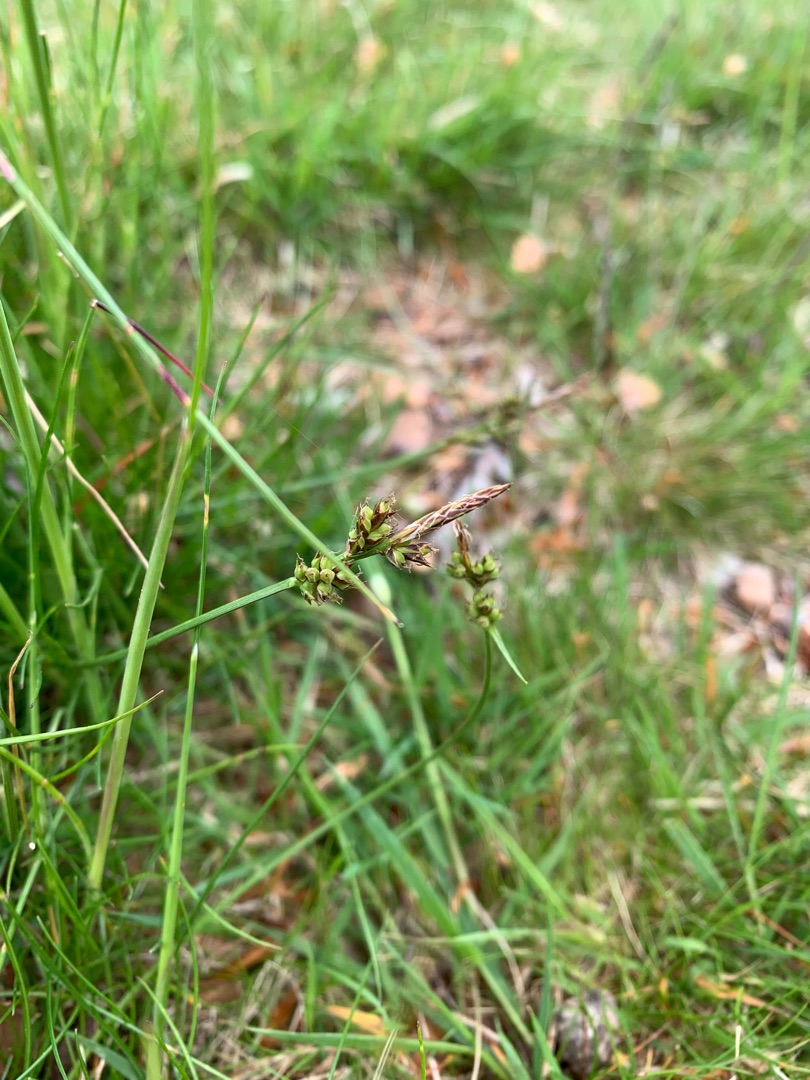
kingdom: Plantae
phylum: Tracheophyta
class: Liliopsida
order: Poales
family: Cyperaceae
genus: Carex
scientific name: Carex pilulifera
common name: Pille-star
